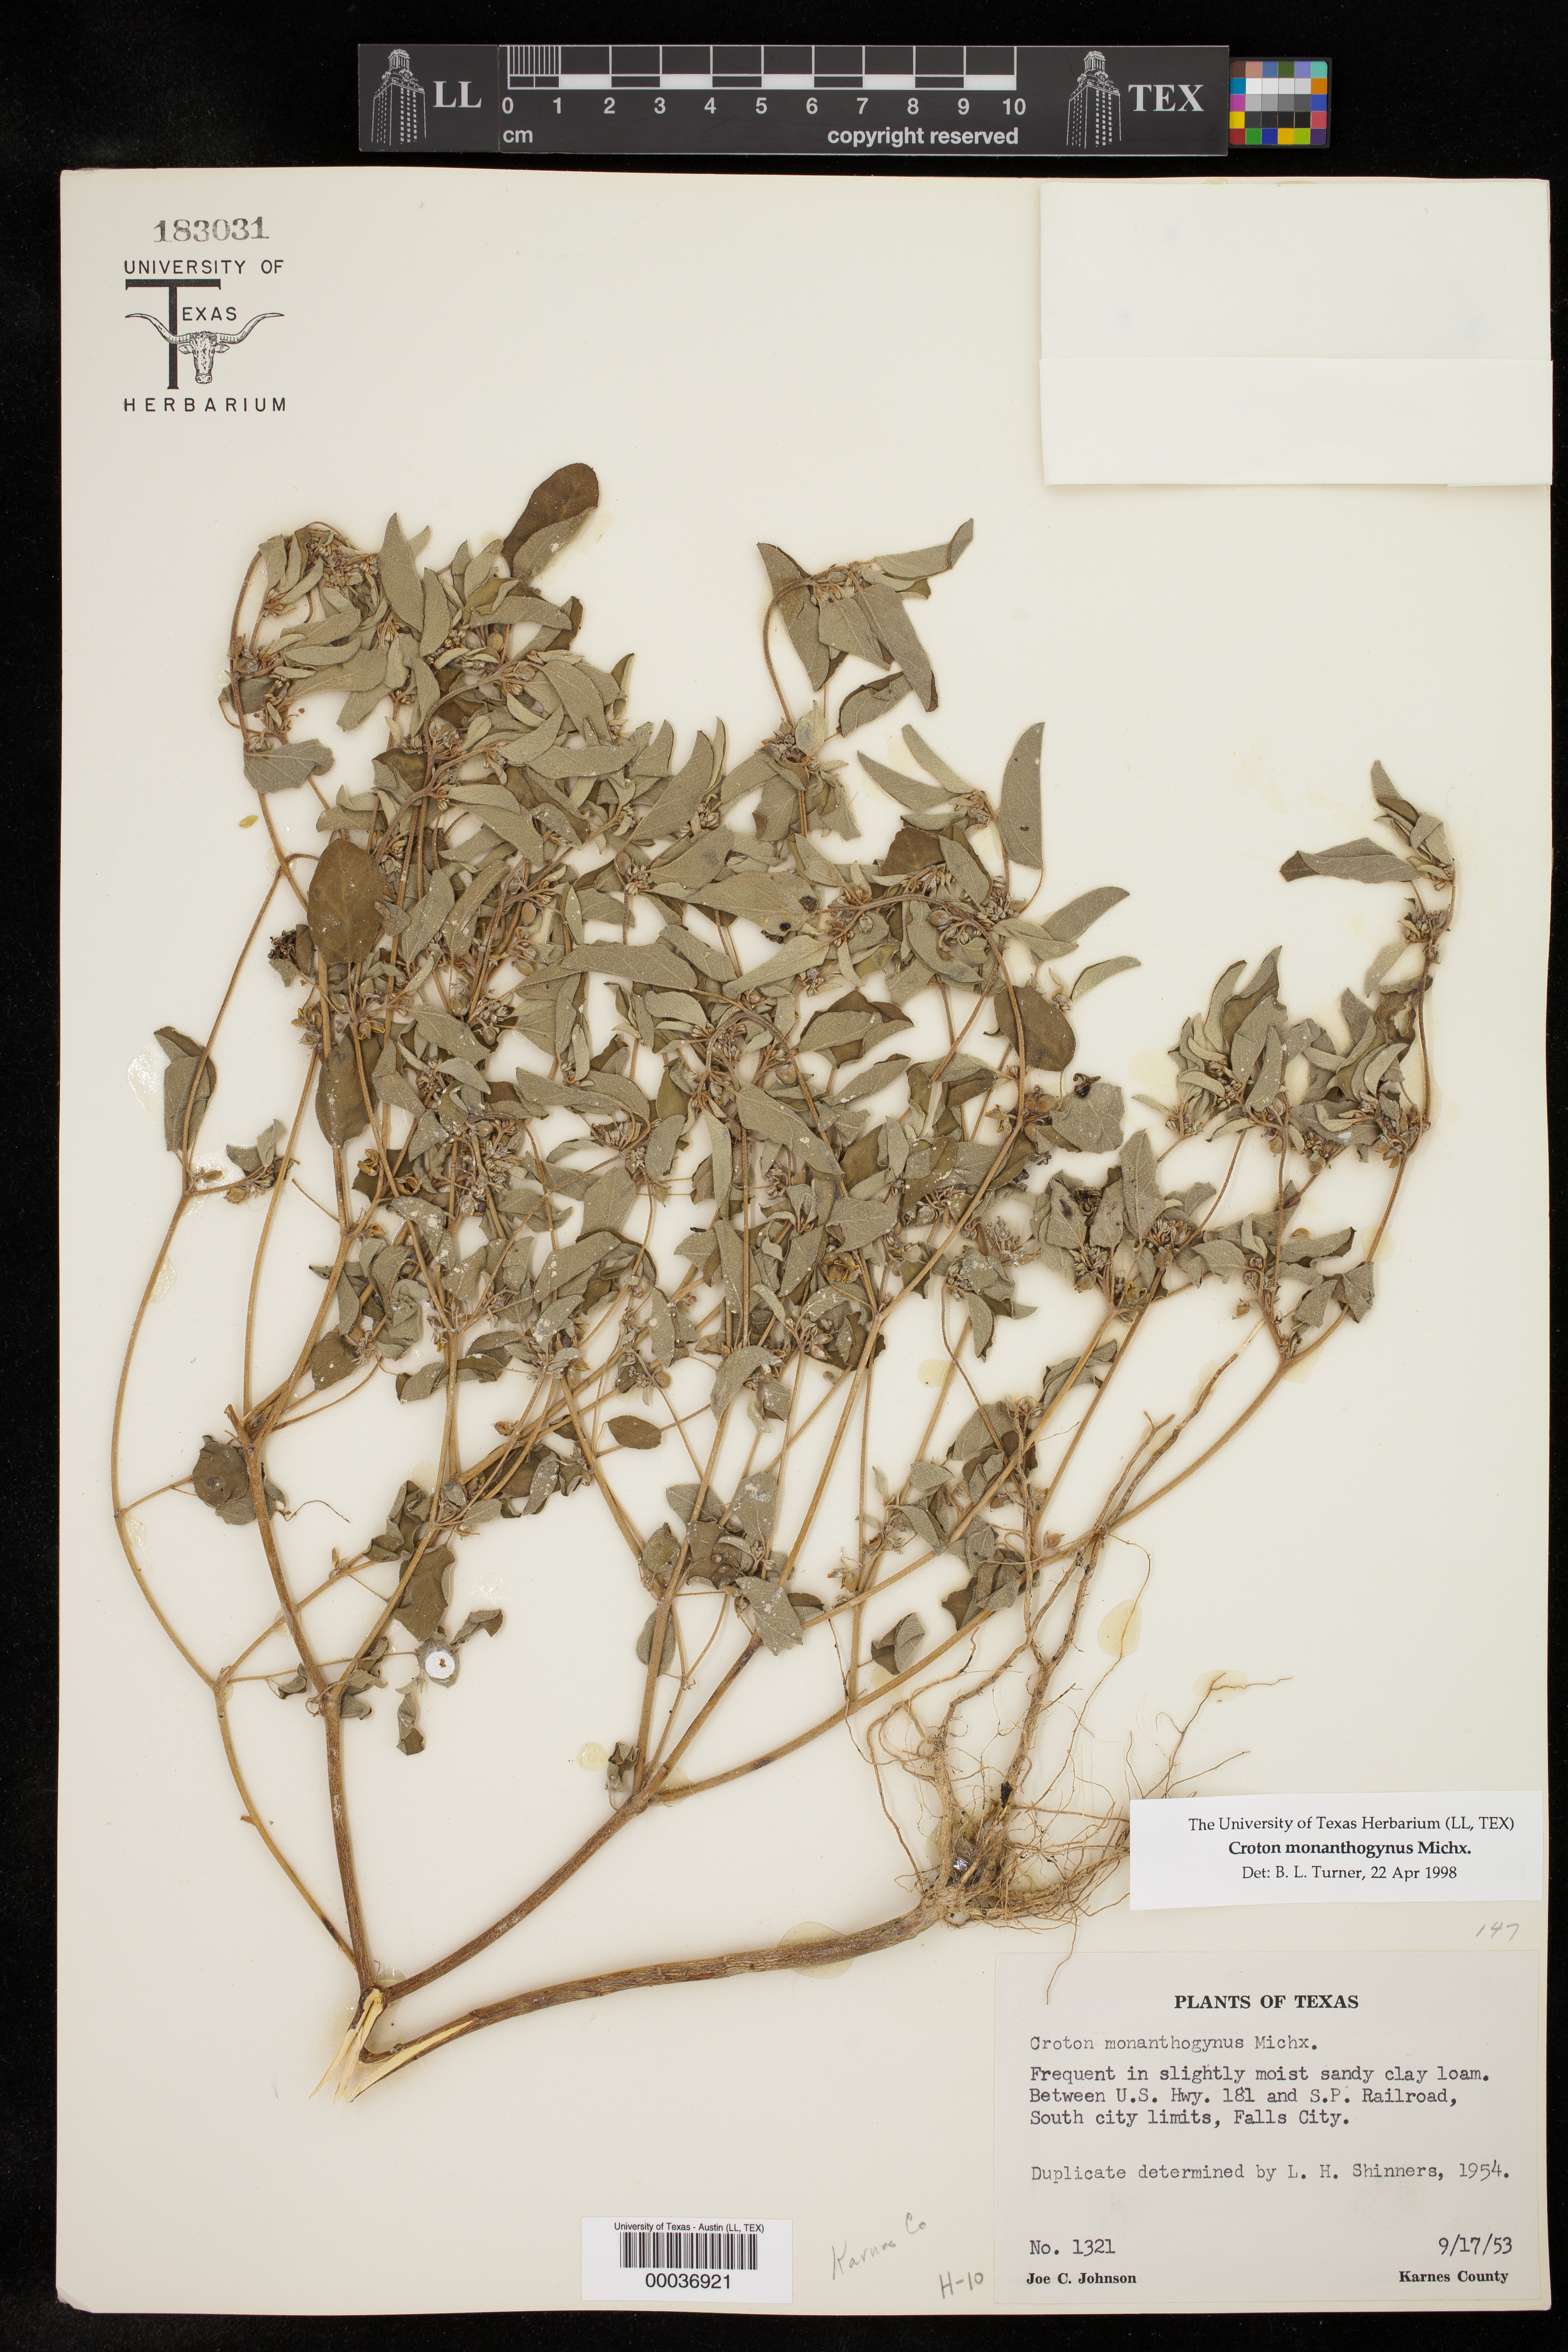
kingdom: Plantae
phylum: Tracheophyta
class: Magnoliopsida
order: Malpighiales
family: Euphorbiaceae
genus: Croton
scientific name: Croton monanthogynus
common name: One-seed croton
